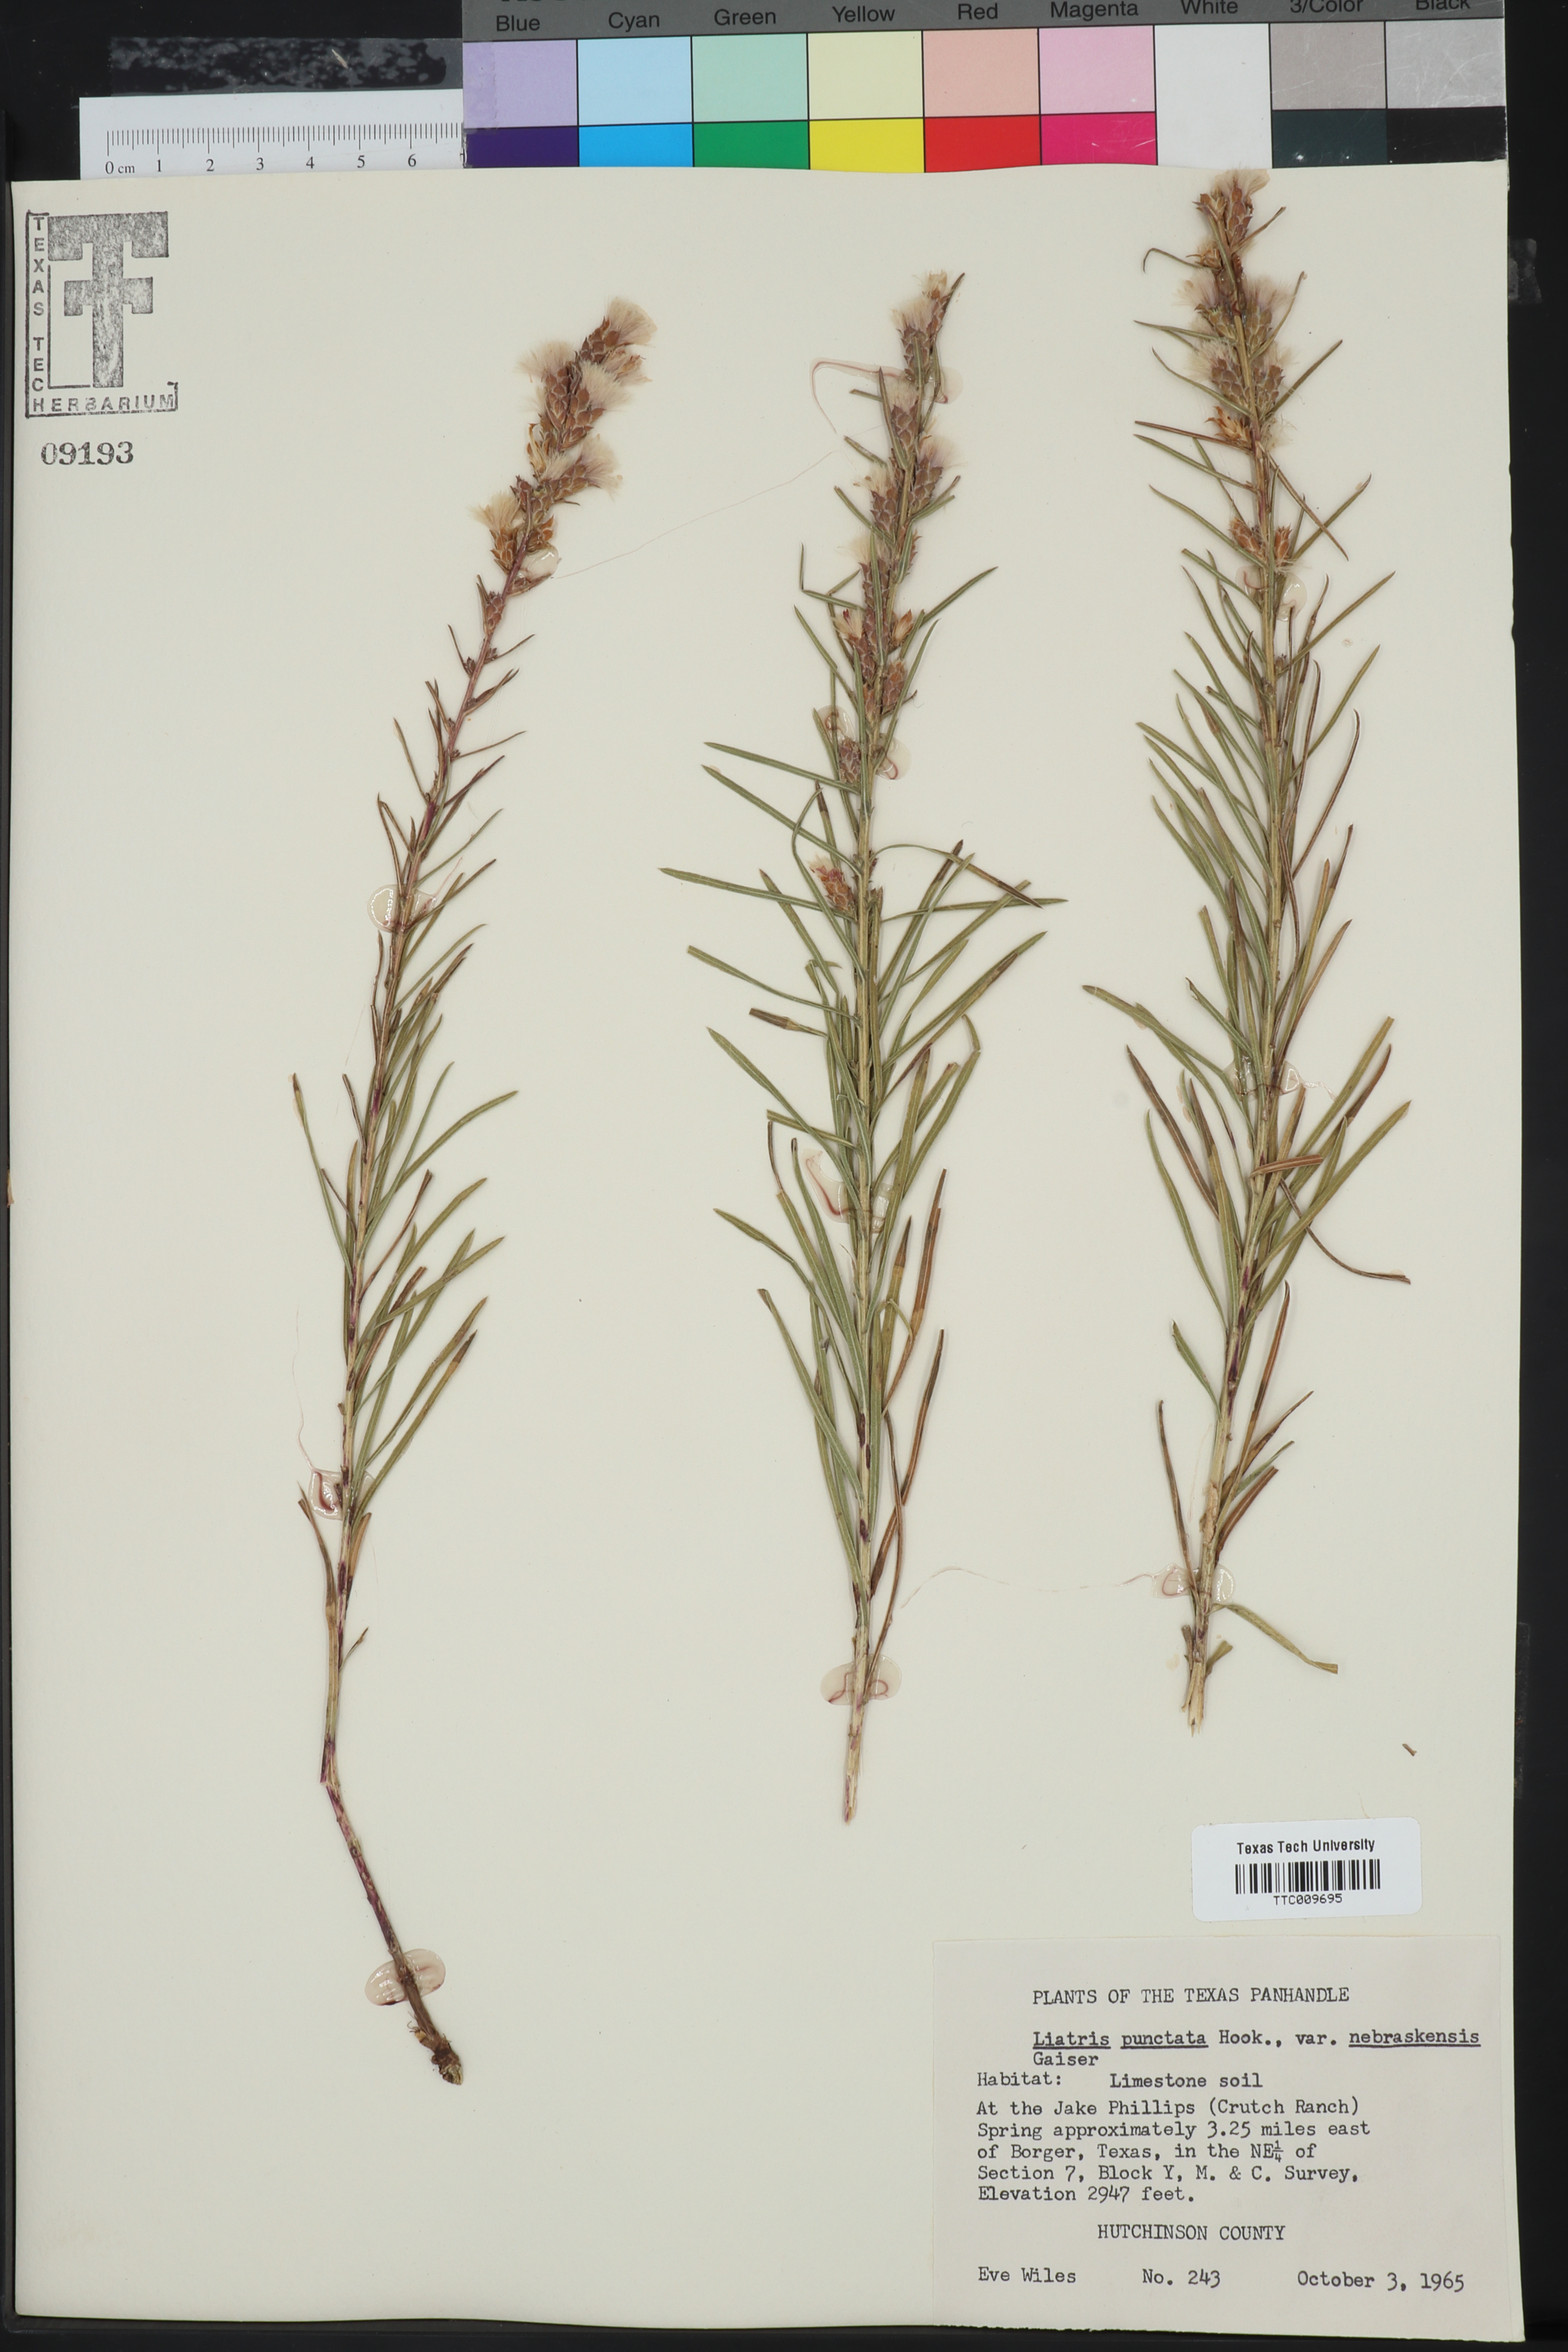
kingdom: Plantae
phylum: Tracheophyta
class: Magnoliopsida
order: Asterales
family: Asteraceae
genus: Liatris
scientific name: Liatris punctata
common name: Dotted gayfeather
